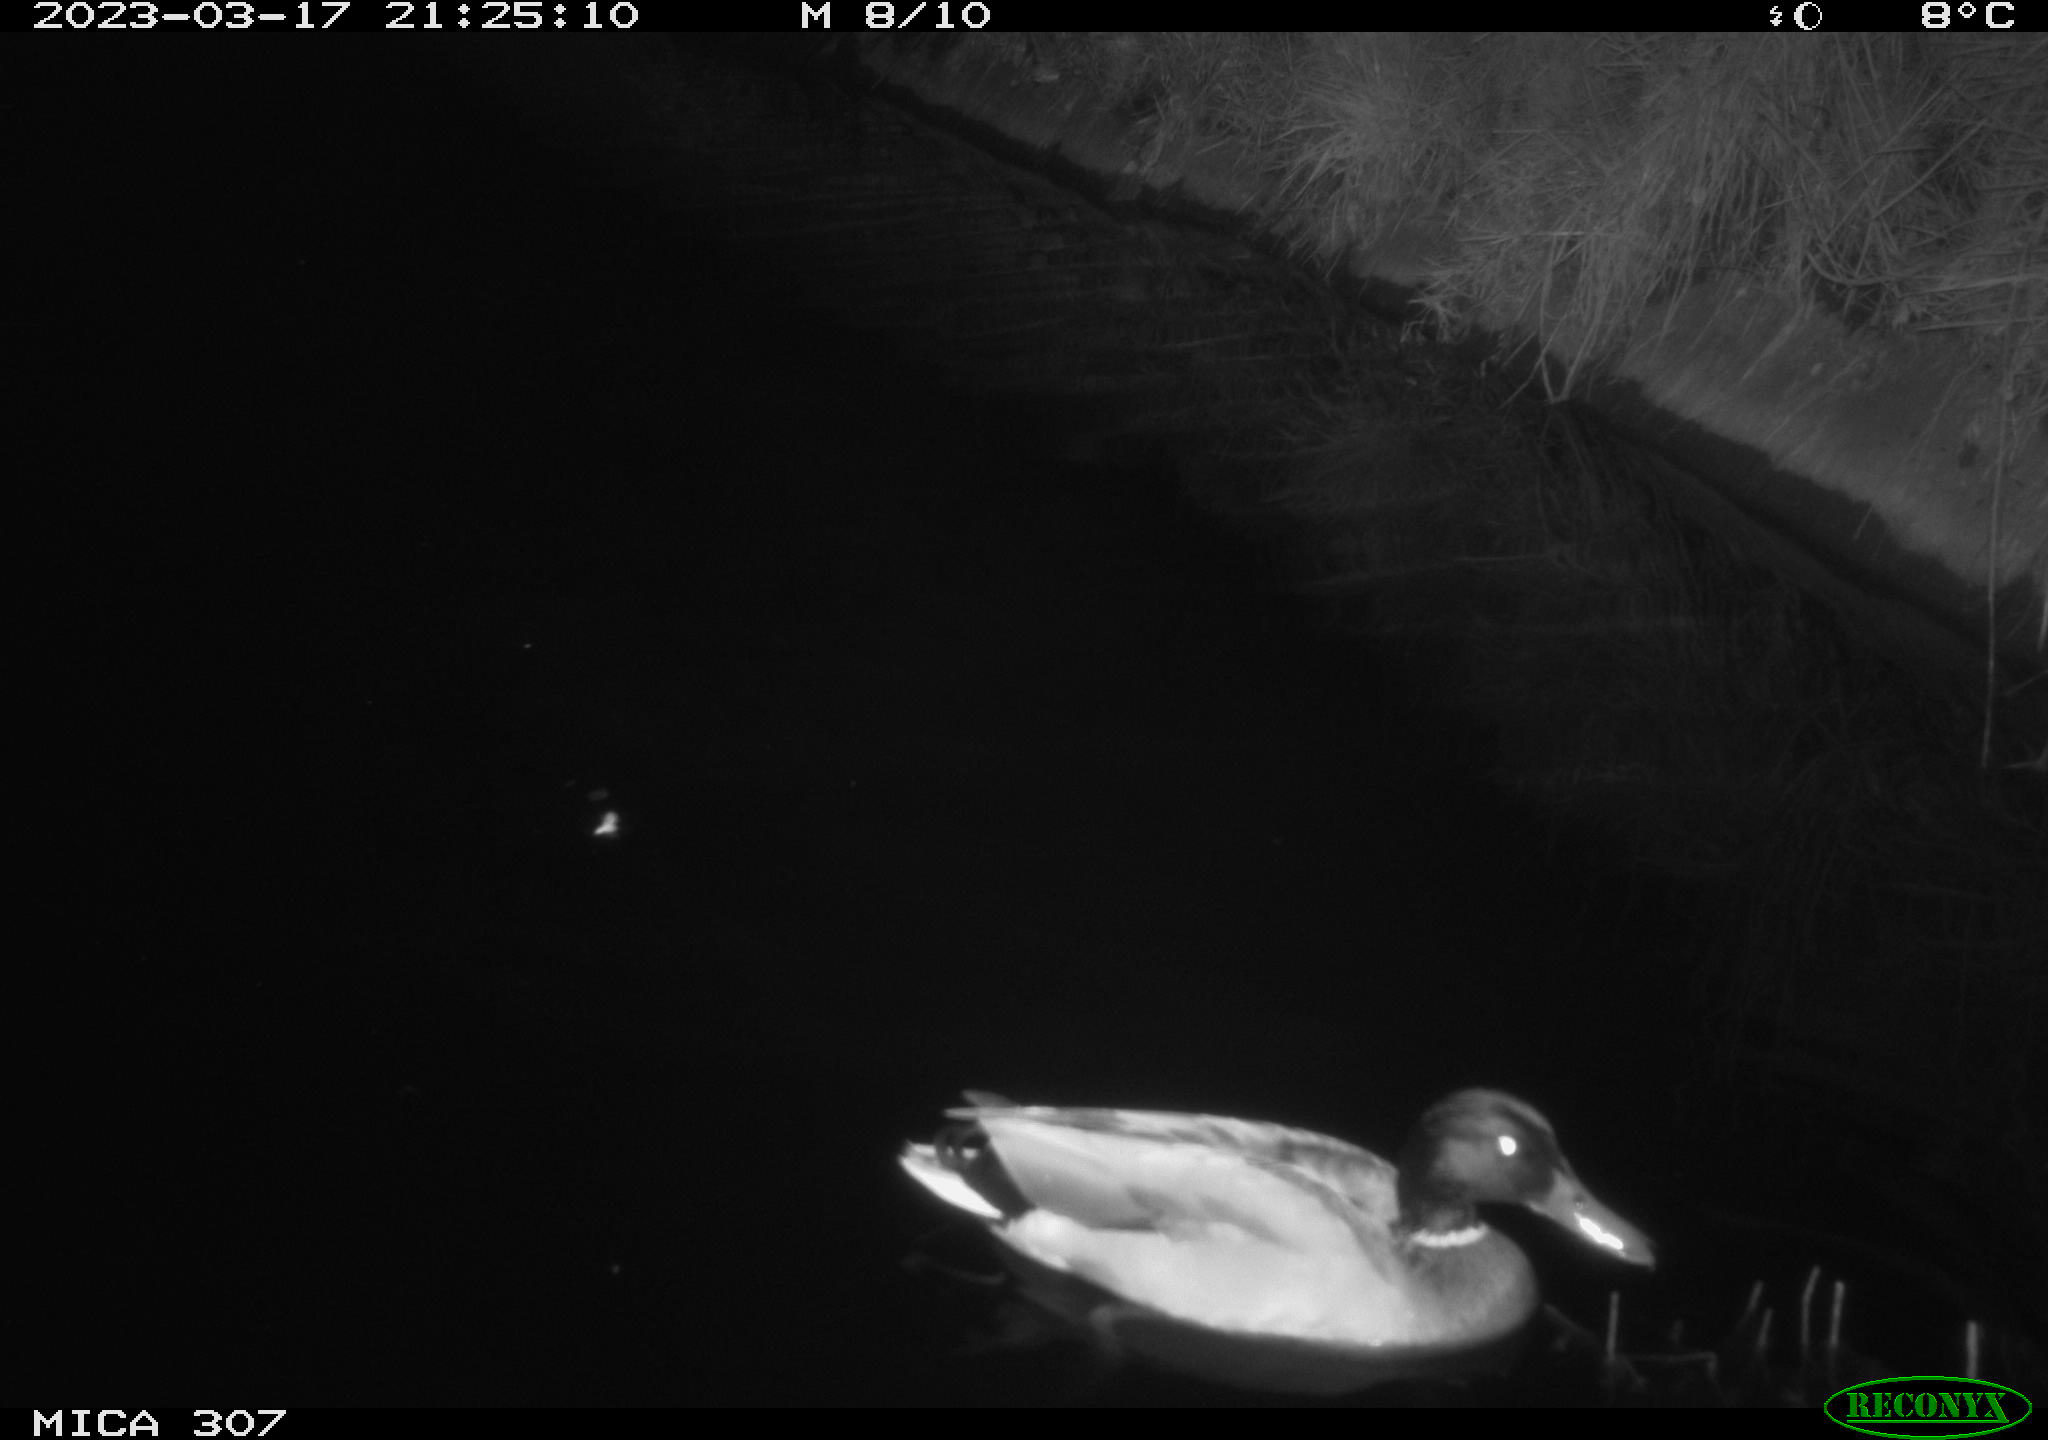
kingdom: Animalia
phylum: Chordata
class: Aves
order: Anseriformes
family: Anatidae
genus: Anas
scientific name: Anas
